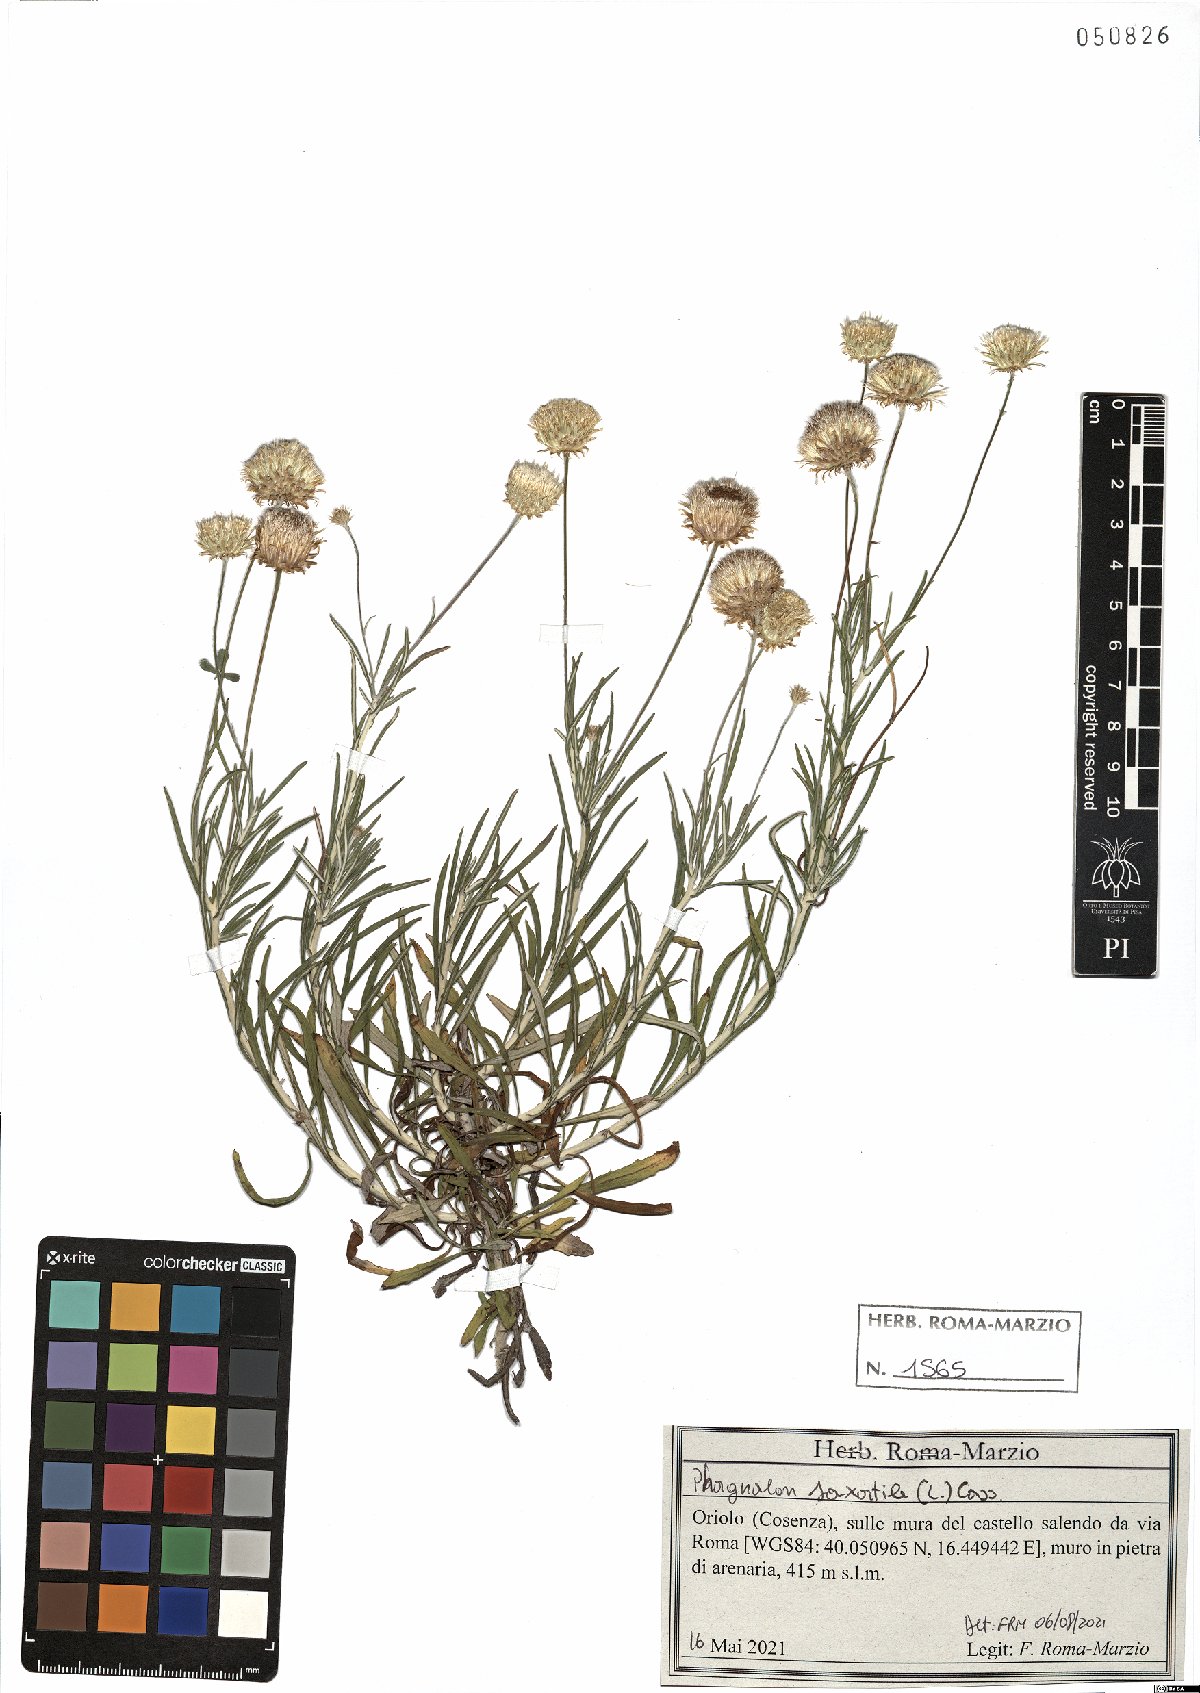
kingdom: Plantae
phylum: Tracheophyta
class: Magnoliopsida
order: Asterales
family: Asteraceae
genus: Phagnalon
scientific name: Phagnalon saxatile
